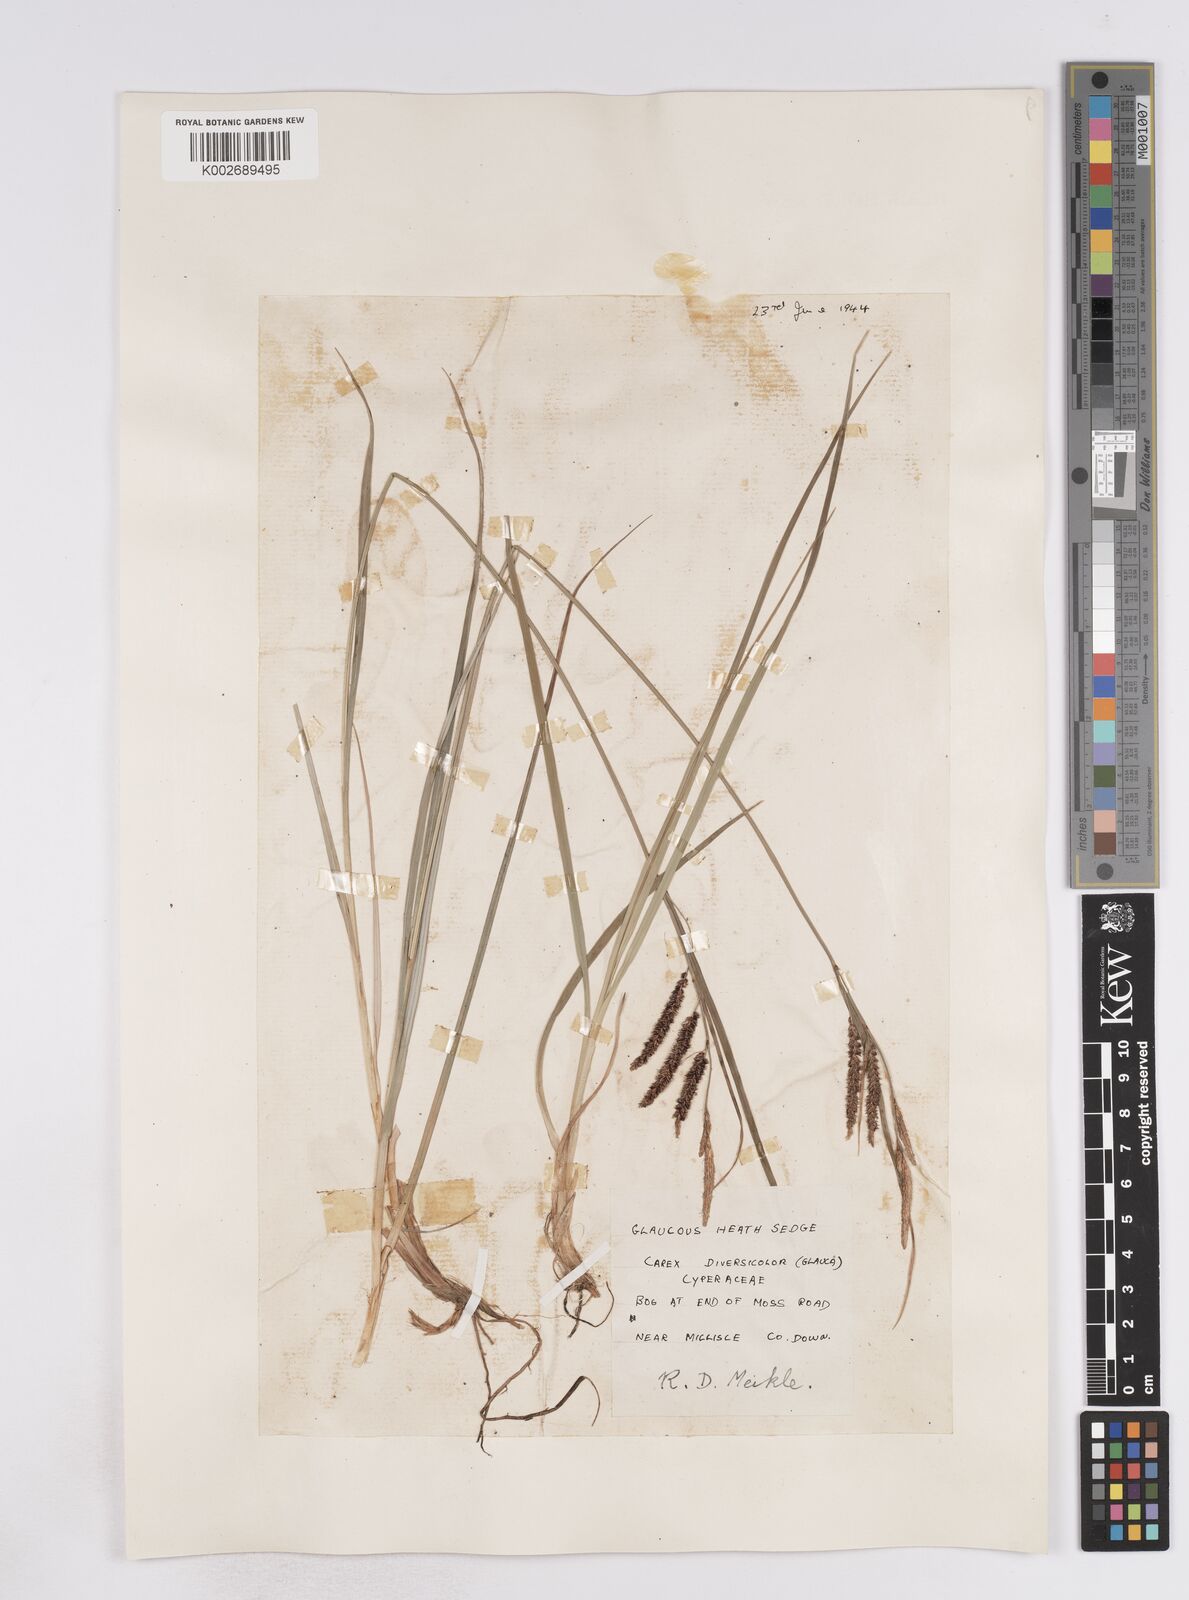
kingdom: Plantae
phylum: Tracheophyta
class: Liliopsida
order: Poales
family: Cyperaceae
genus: Carex
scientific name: Carex flacca
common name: Glaucous sedge
